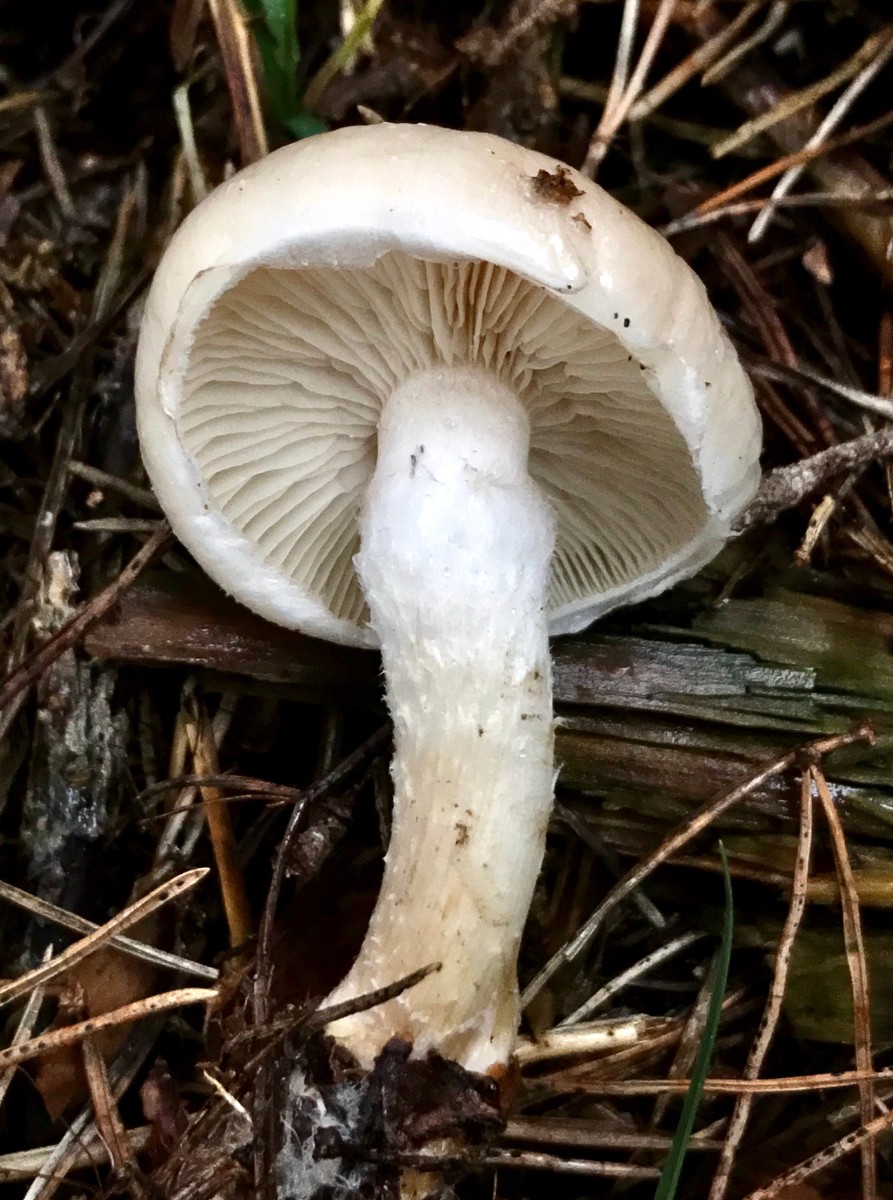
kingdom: Fungi
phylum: Basidiomycota
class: Agaricomycetes
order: Agaricales
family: Strophariaceae
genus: Pholiota
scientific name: Pholiota lenta
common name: løv-skælhat
